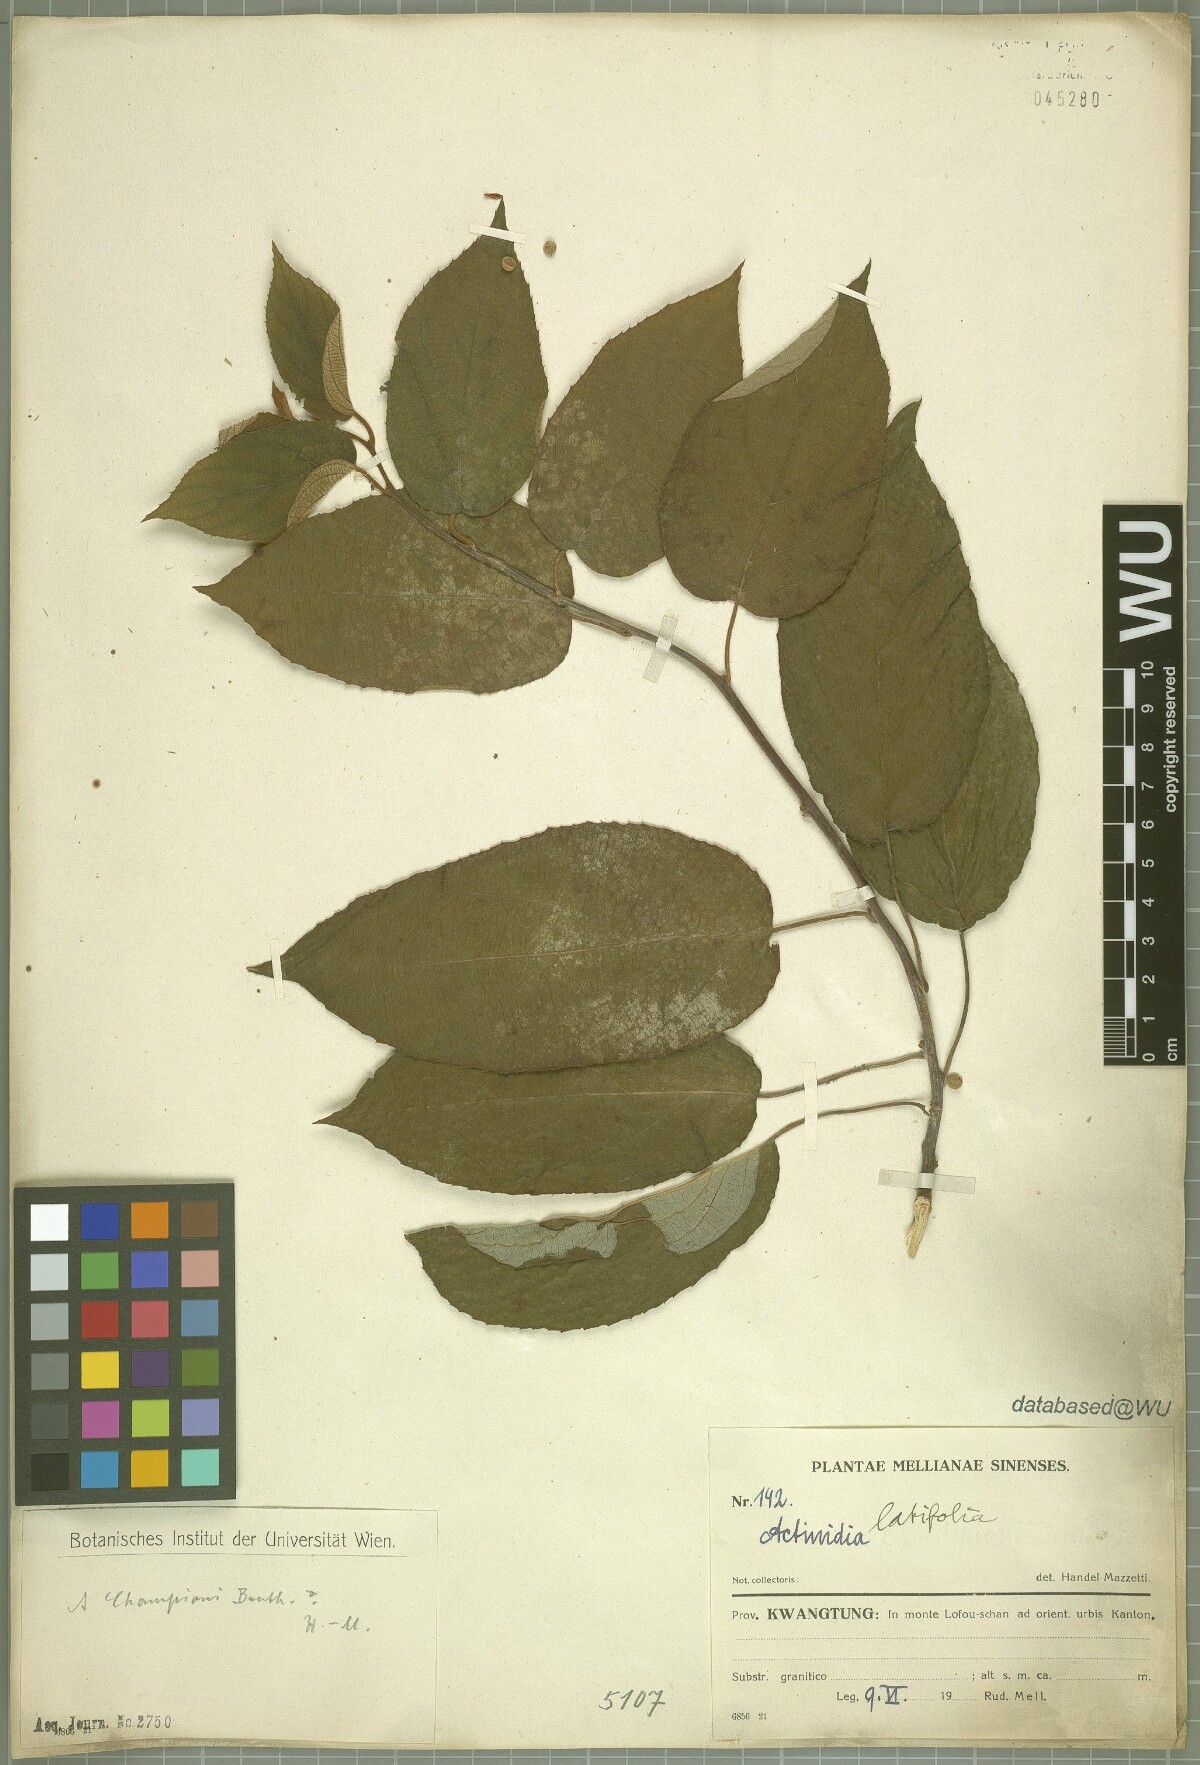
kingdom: Plantae
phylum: Tracheophyta
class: Magnoliopsida
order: Ericales
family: Actinidiaceae
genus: Actinidia
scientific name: Actinidia latifolia
